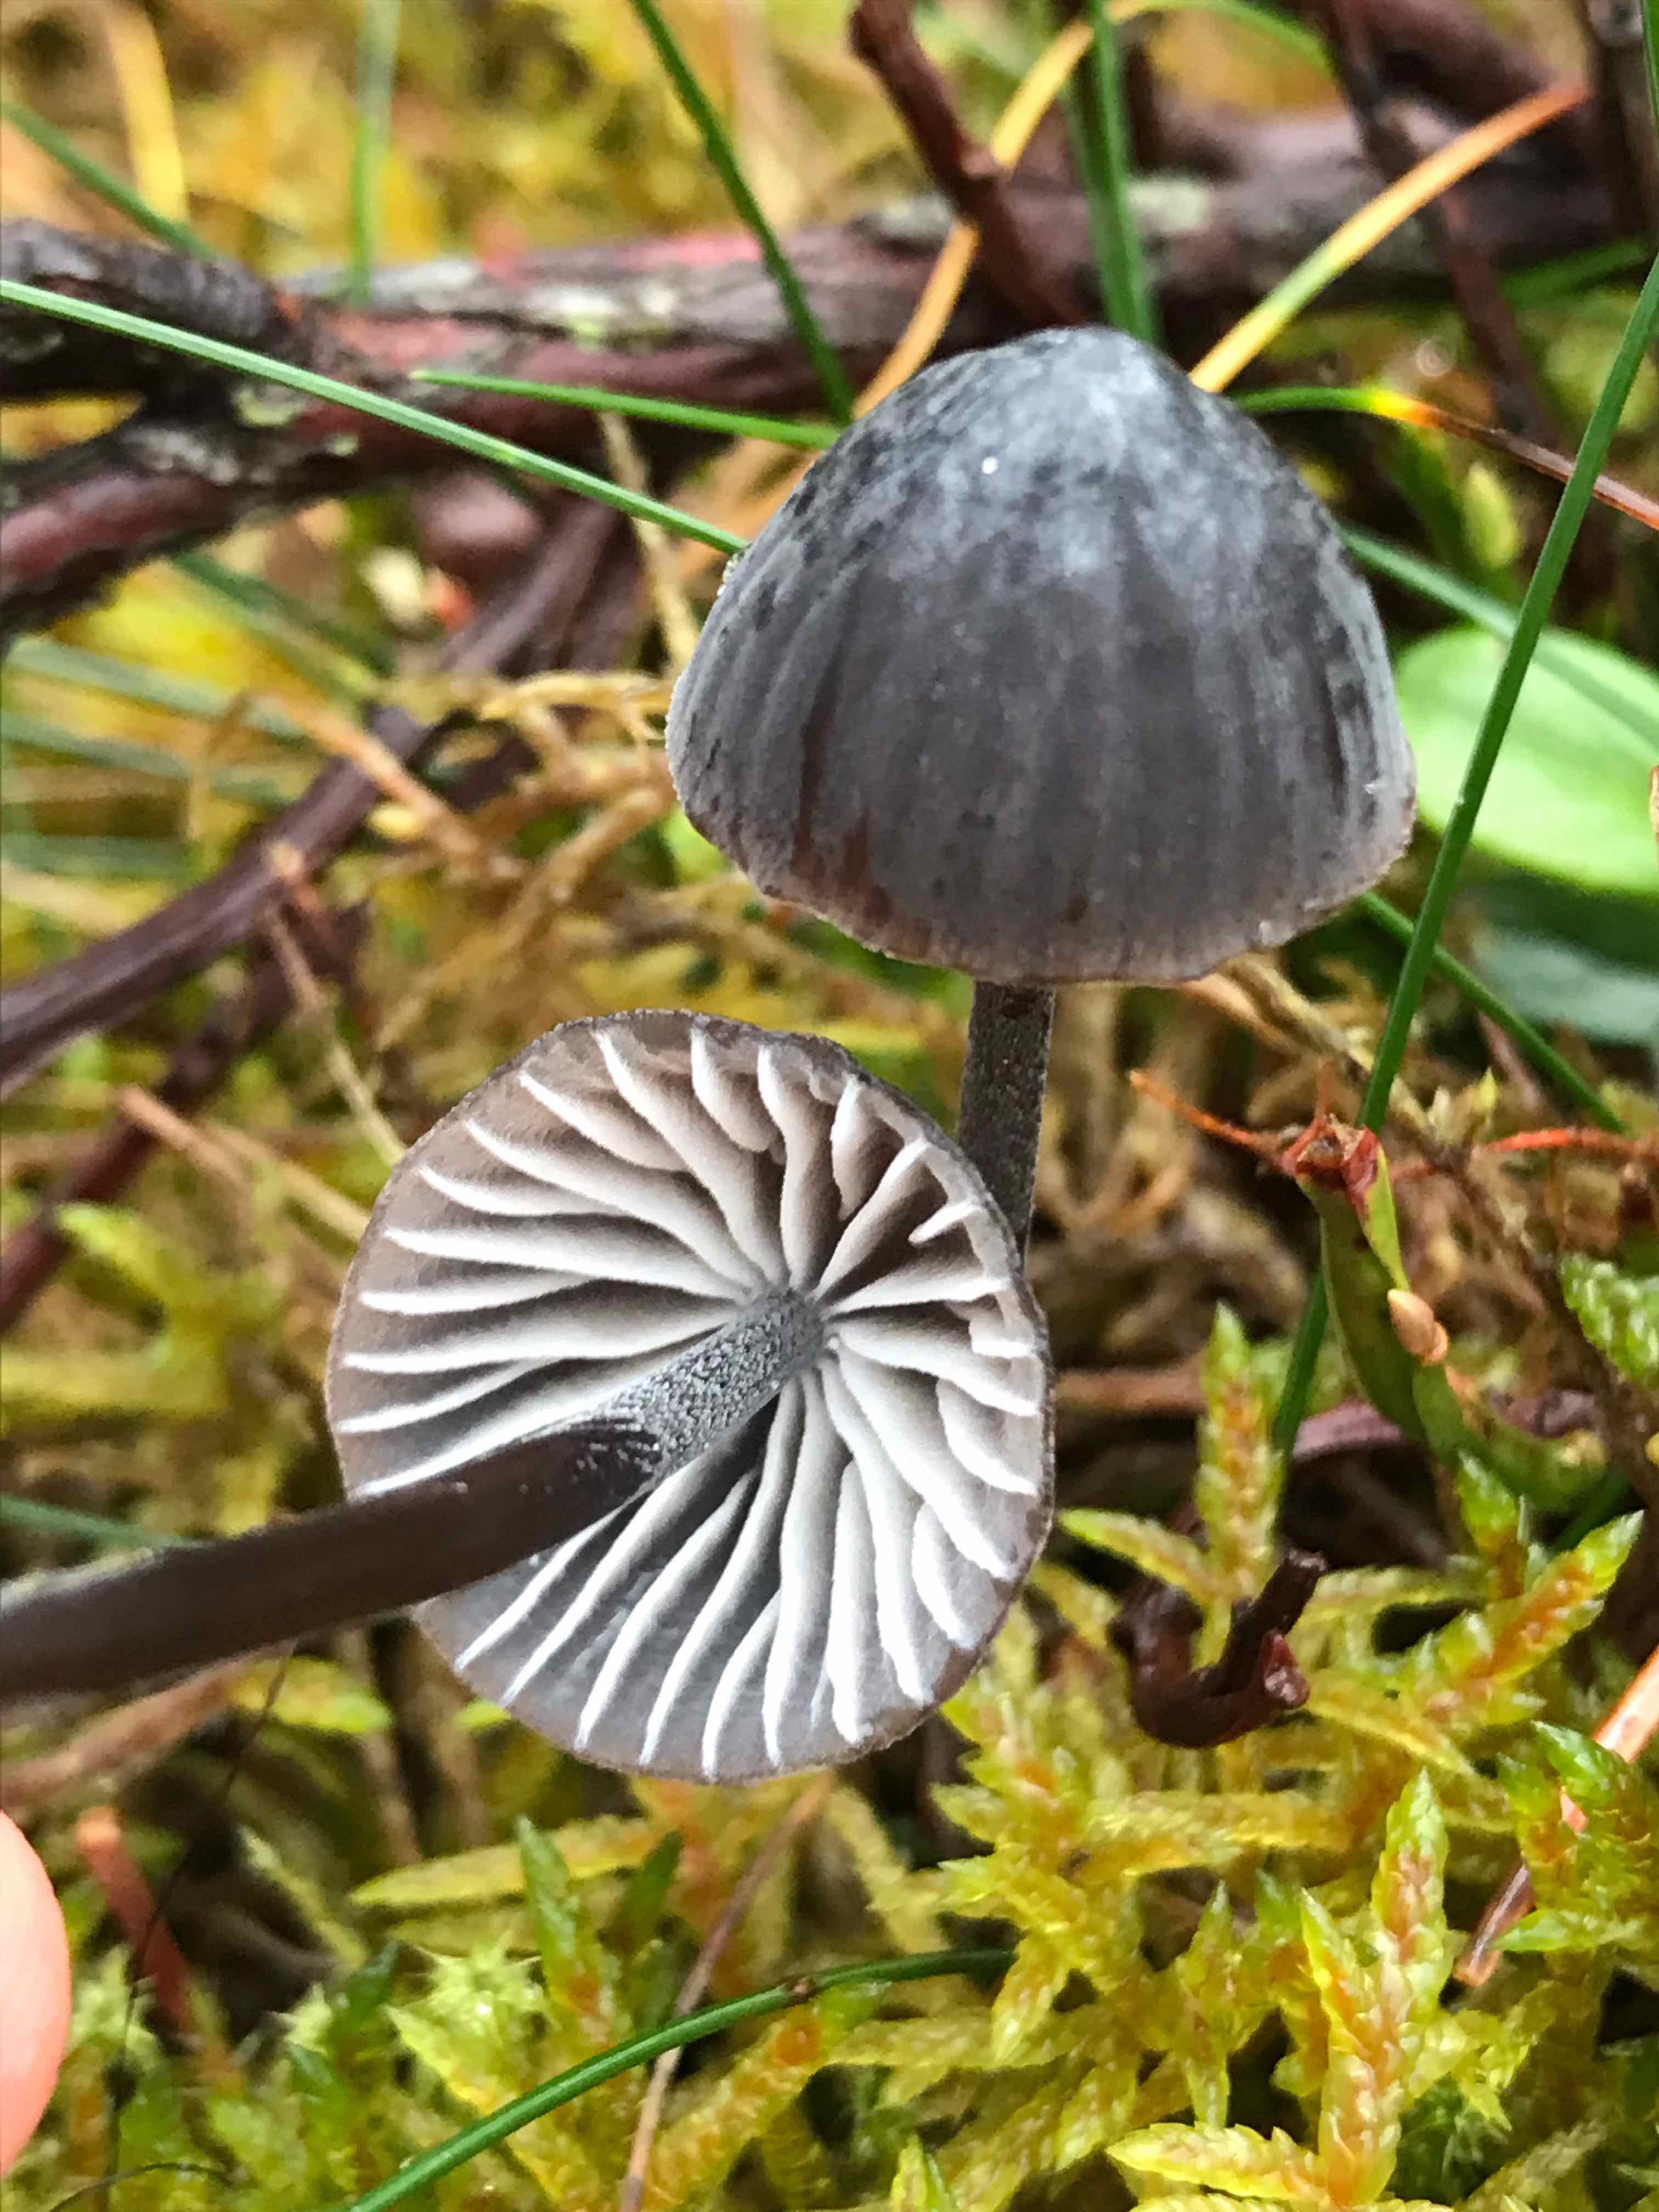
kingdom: Fungi
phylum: Basidiomycota
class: Agaricomycetes
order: Agaricales
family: Mycenaceae
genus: Mycena
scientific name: Mycena galopus
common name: hvidmælket huesvamp
